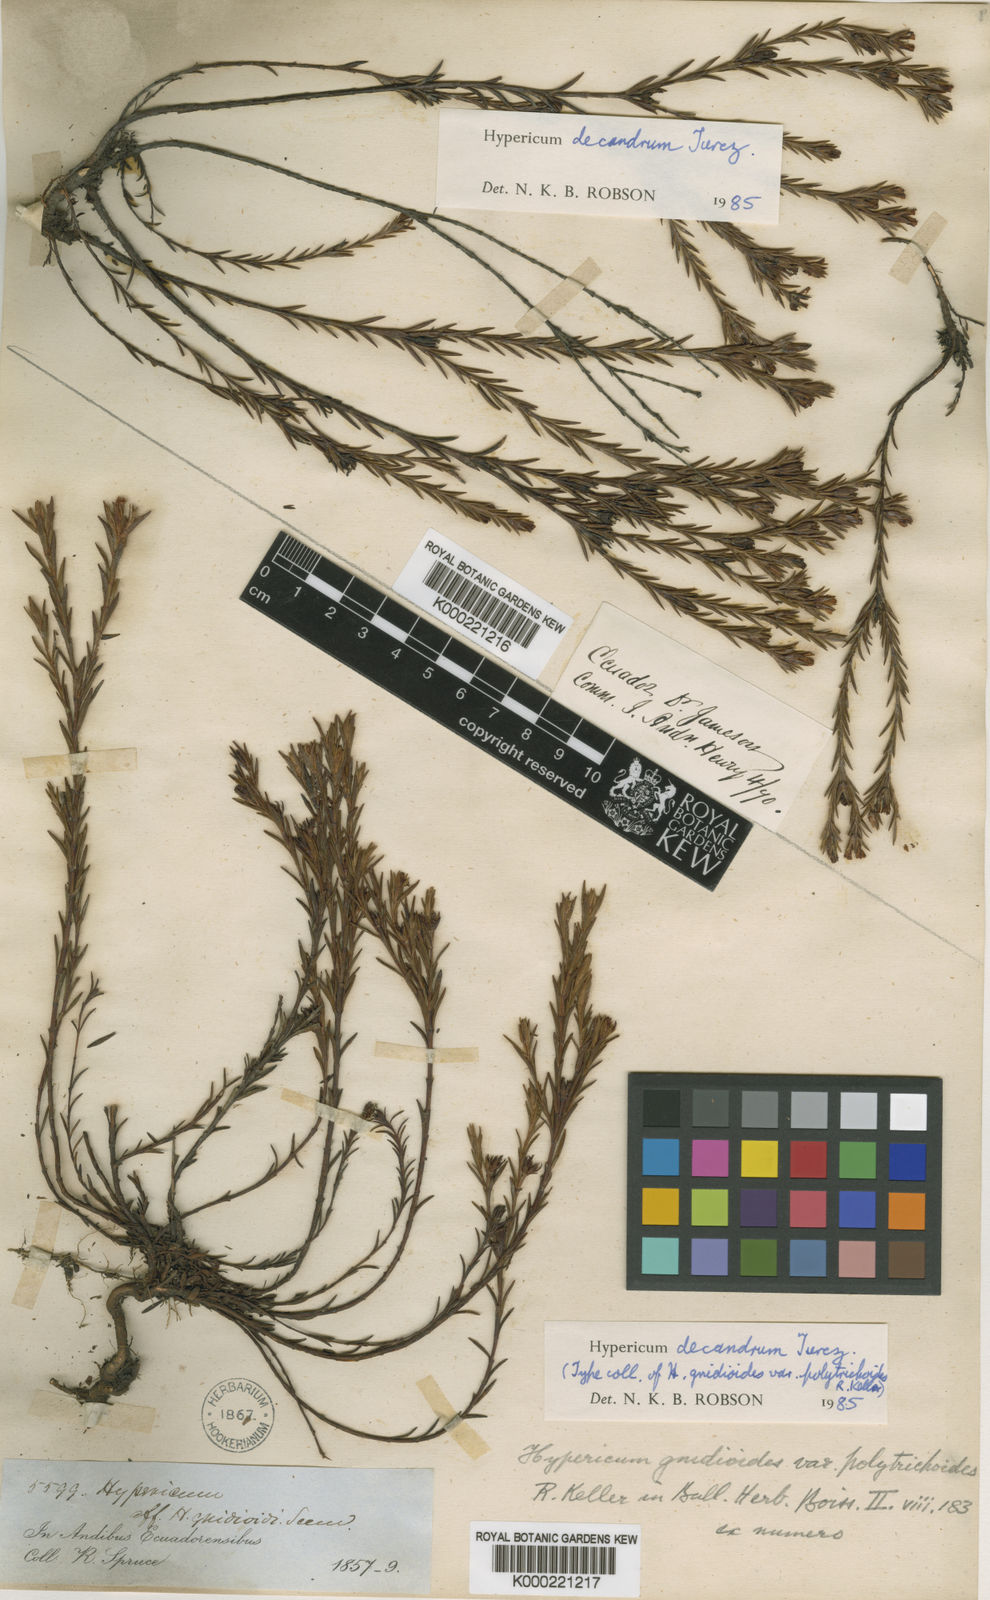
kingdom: Plantae
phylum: Tracheophyta
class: Magnoliopsida
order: Malpighiales
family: Hypericaceae
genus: Hypericum
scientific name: Hypericum decandrum
